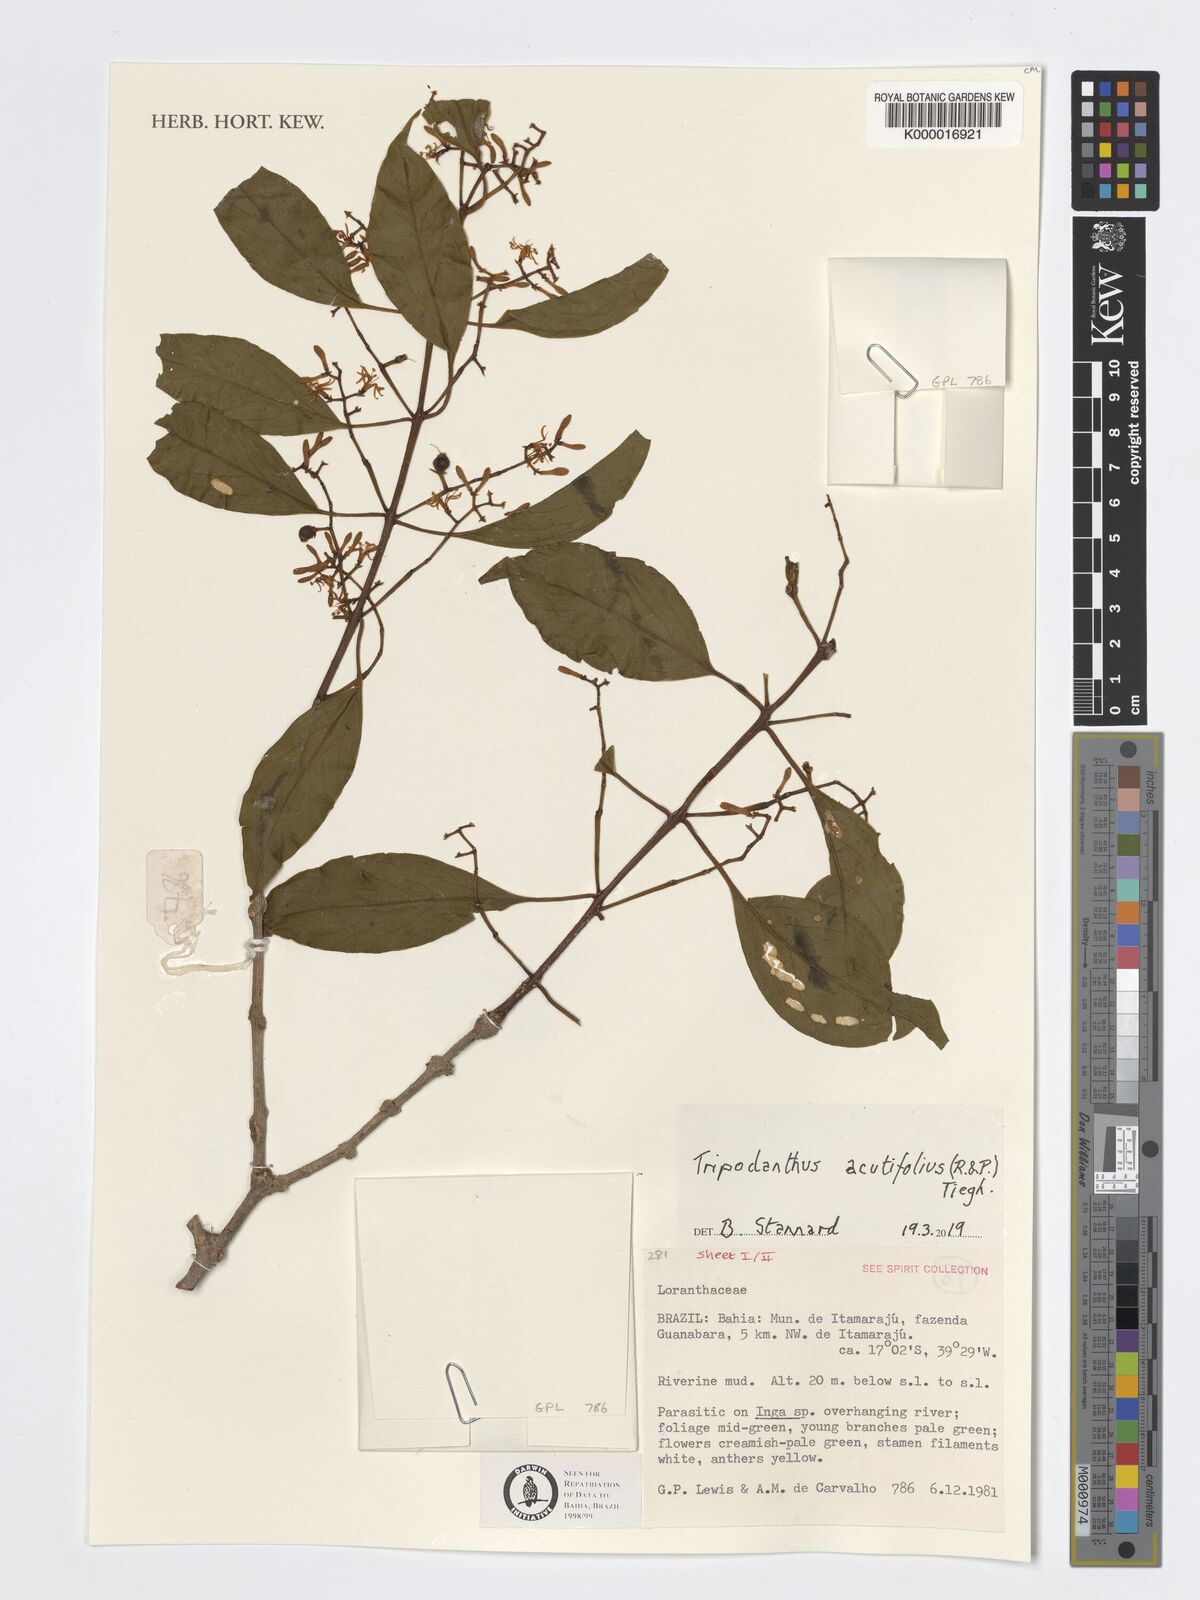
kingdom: Plantae
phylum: Tracheophyta
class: Magnoliopsida
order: Santalales
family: Loranthaceae
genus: Tripodanthus
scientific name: Tripodanthus acutifolius
